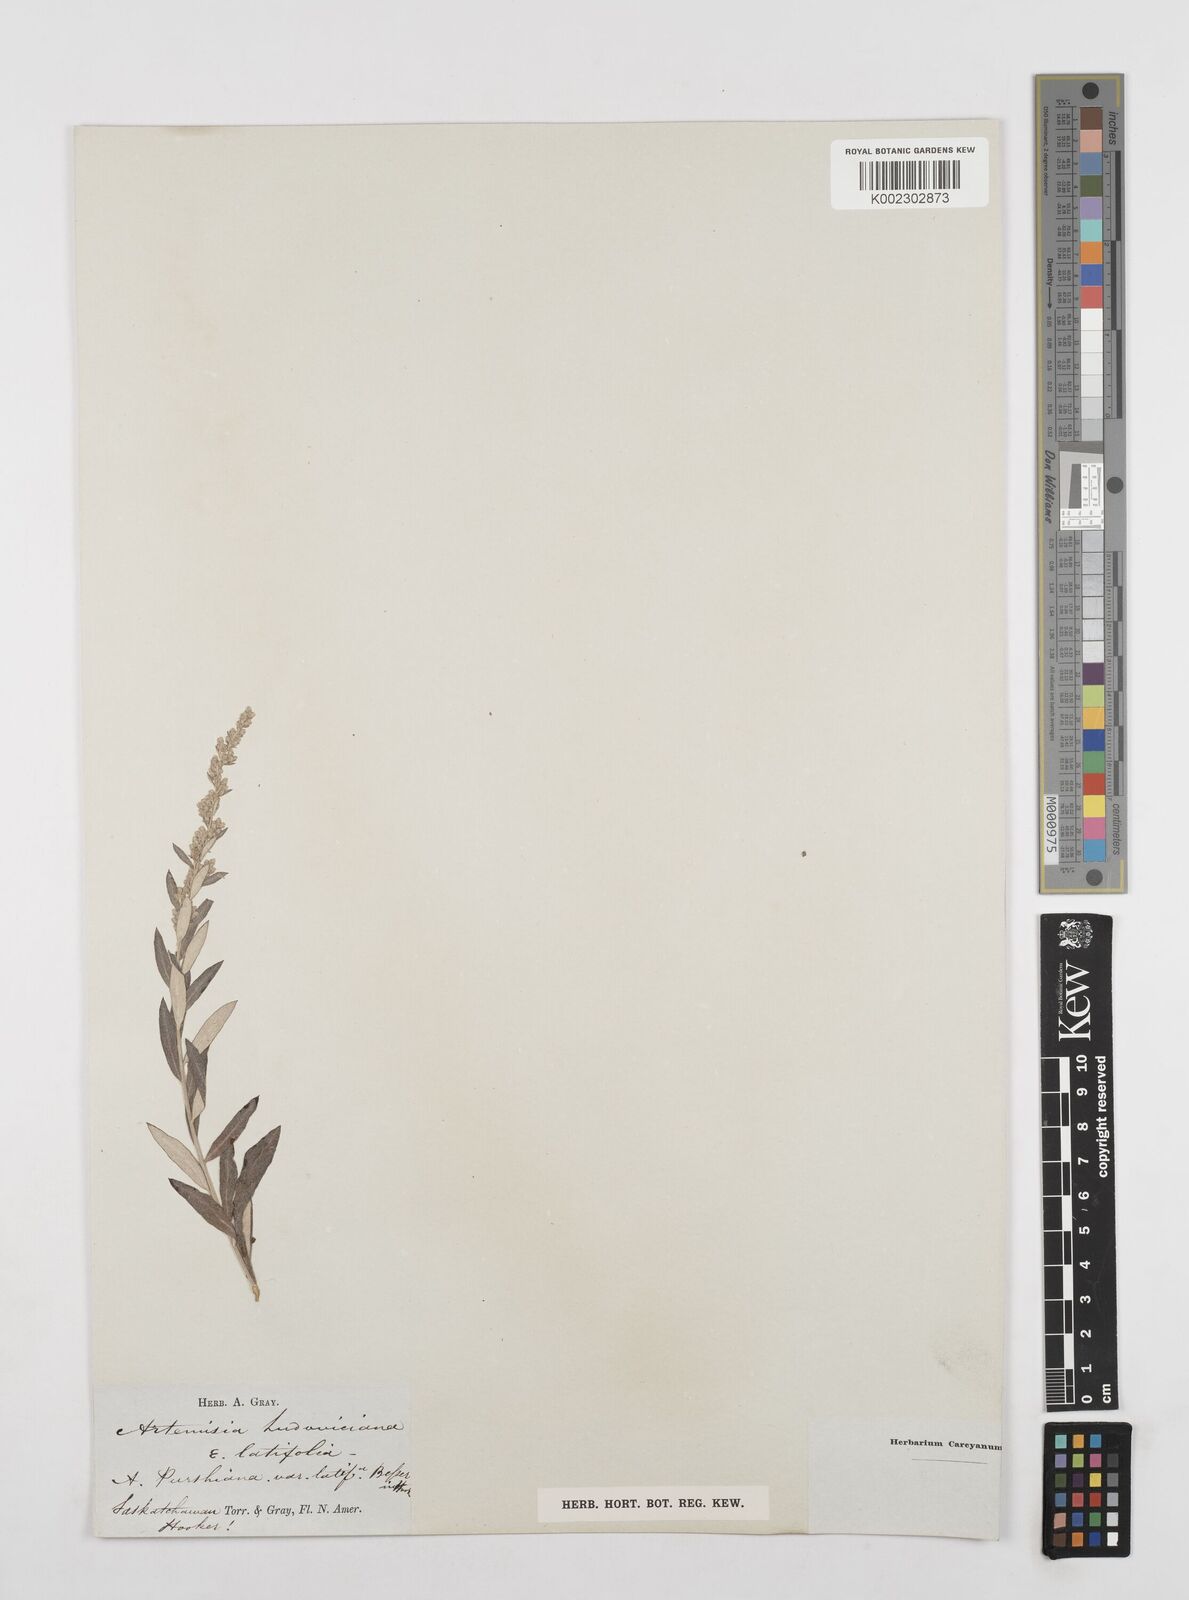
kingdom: Plantae
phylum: Tracheophyta
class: Magnoliopsida
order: Asterales
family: Asteraceae
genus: Artemisia
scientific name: Artemisia ludoviciana
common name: Western mugwort
